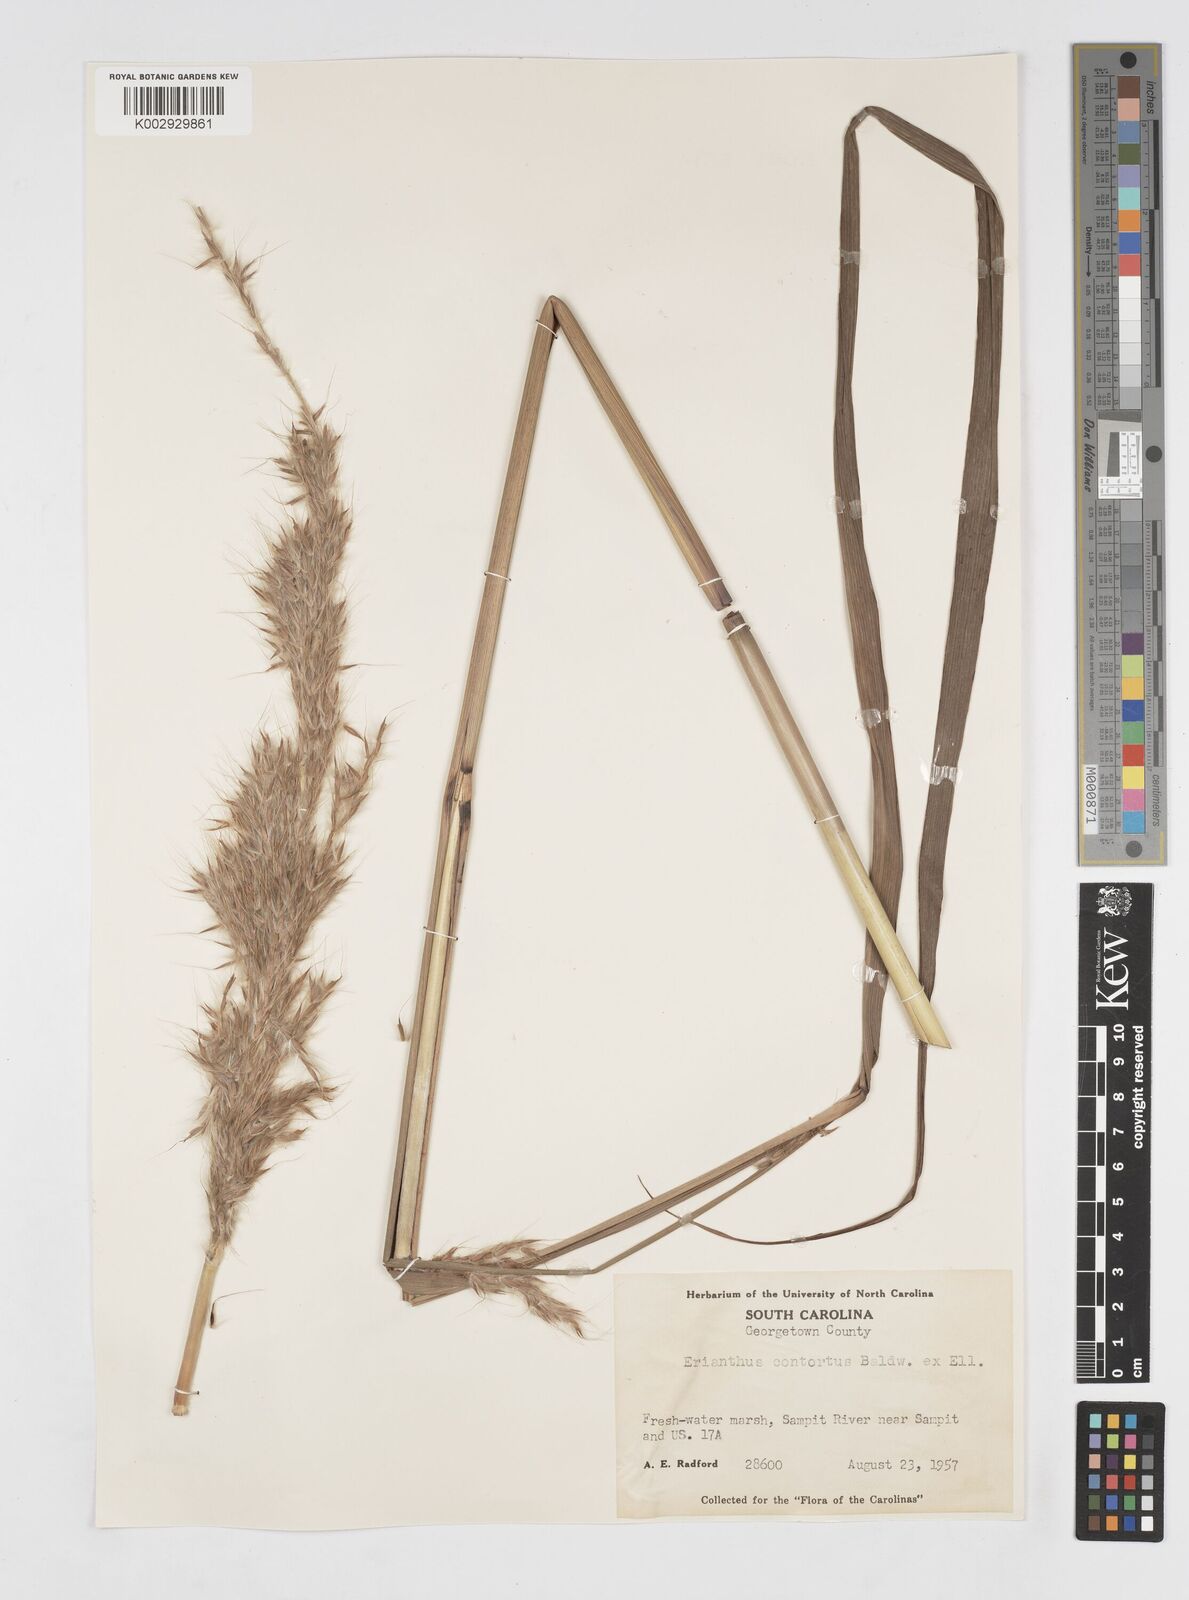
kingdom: Plantae
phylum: Tracheophyta
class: Liliopsida
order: Poales
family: Poaceae
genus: Erianthus
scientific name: Erianthus contortus
